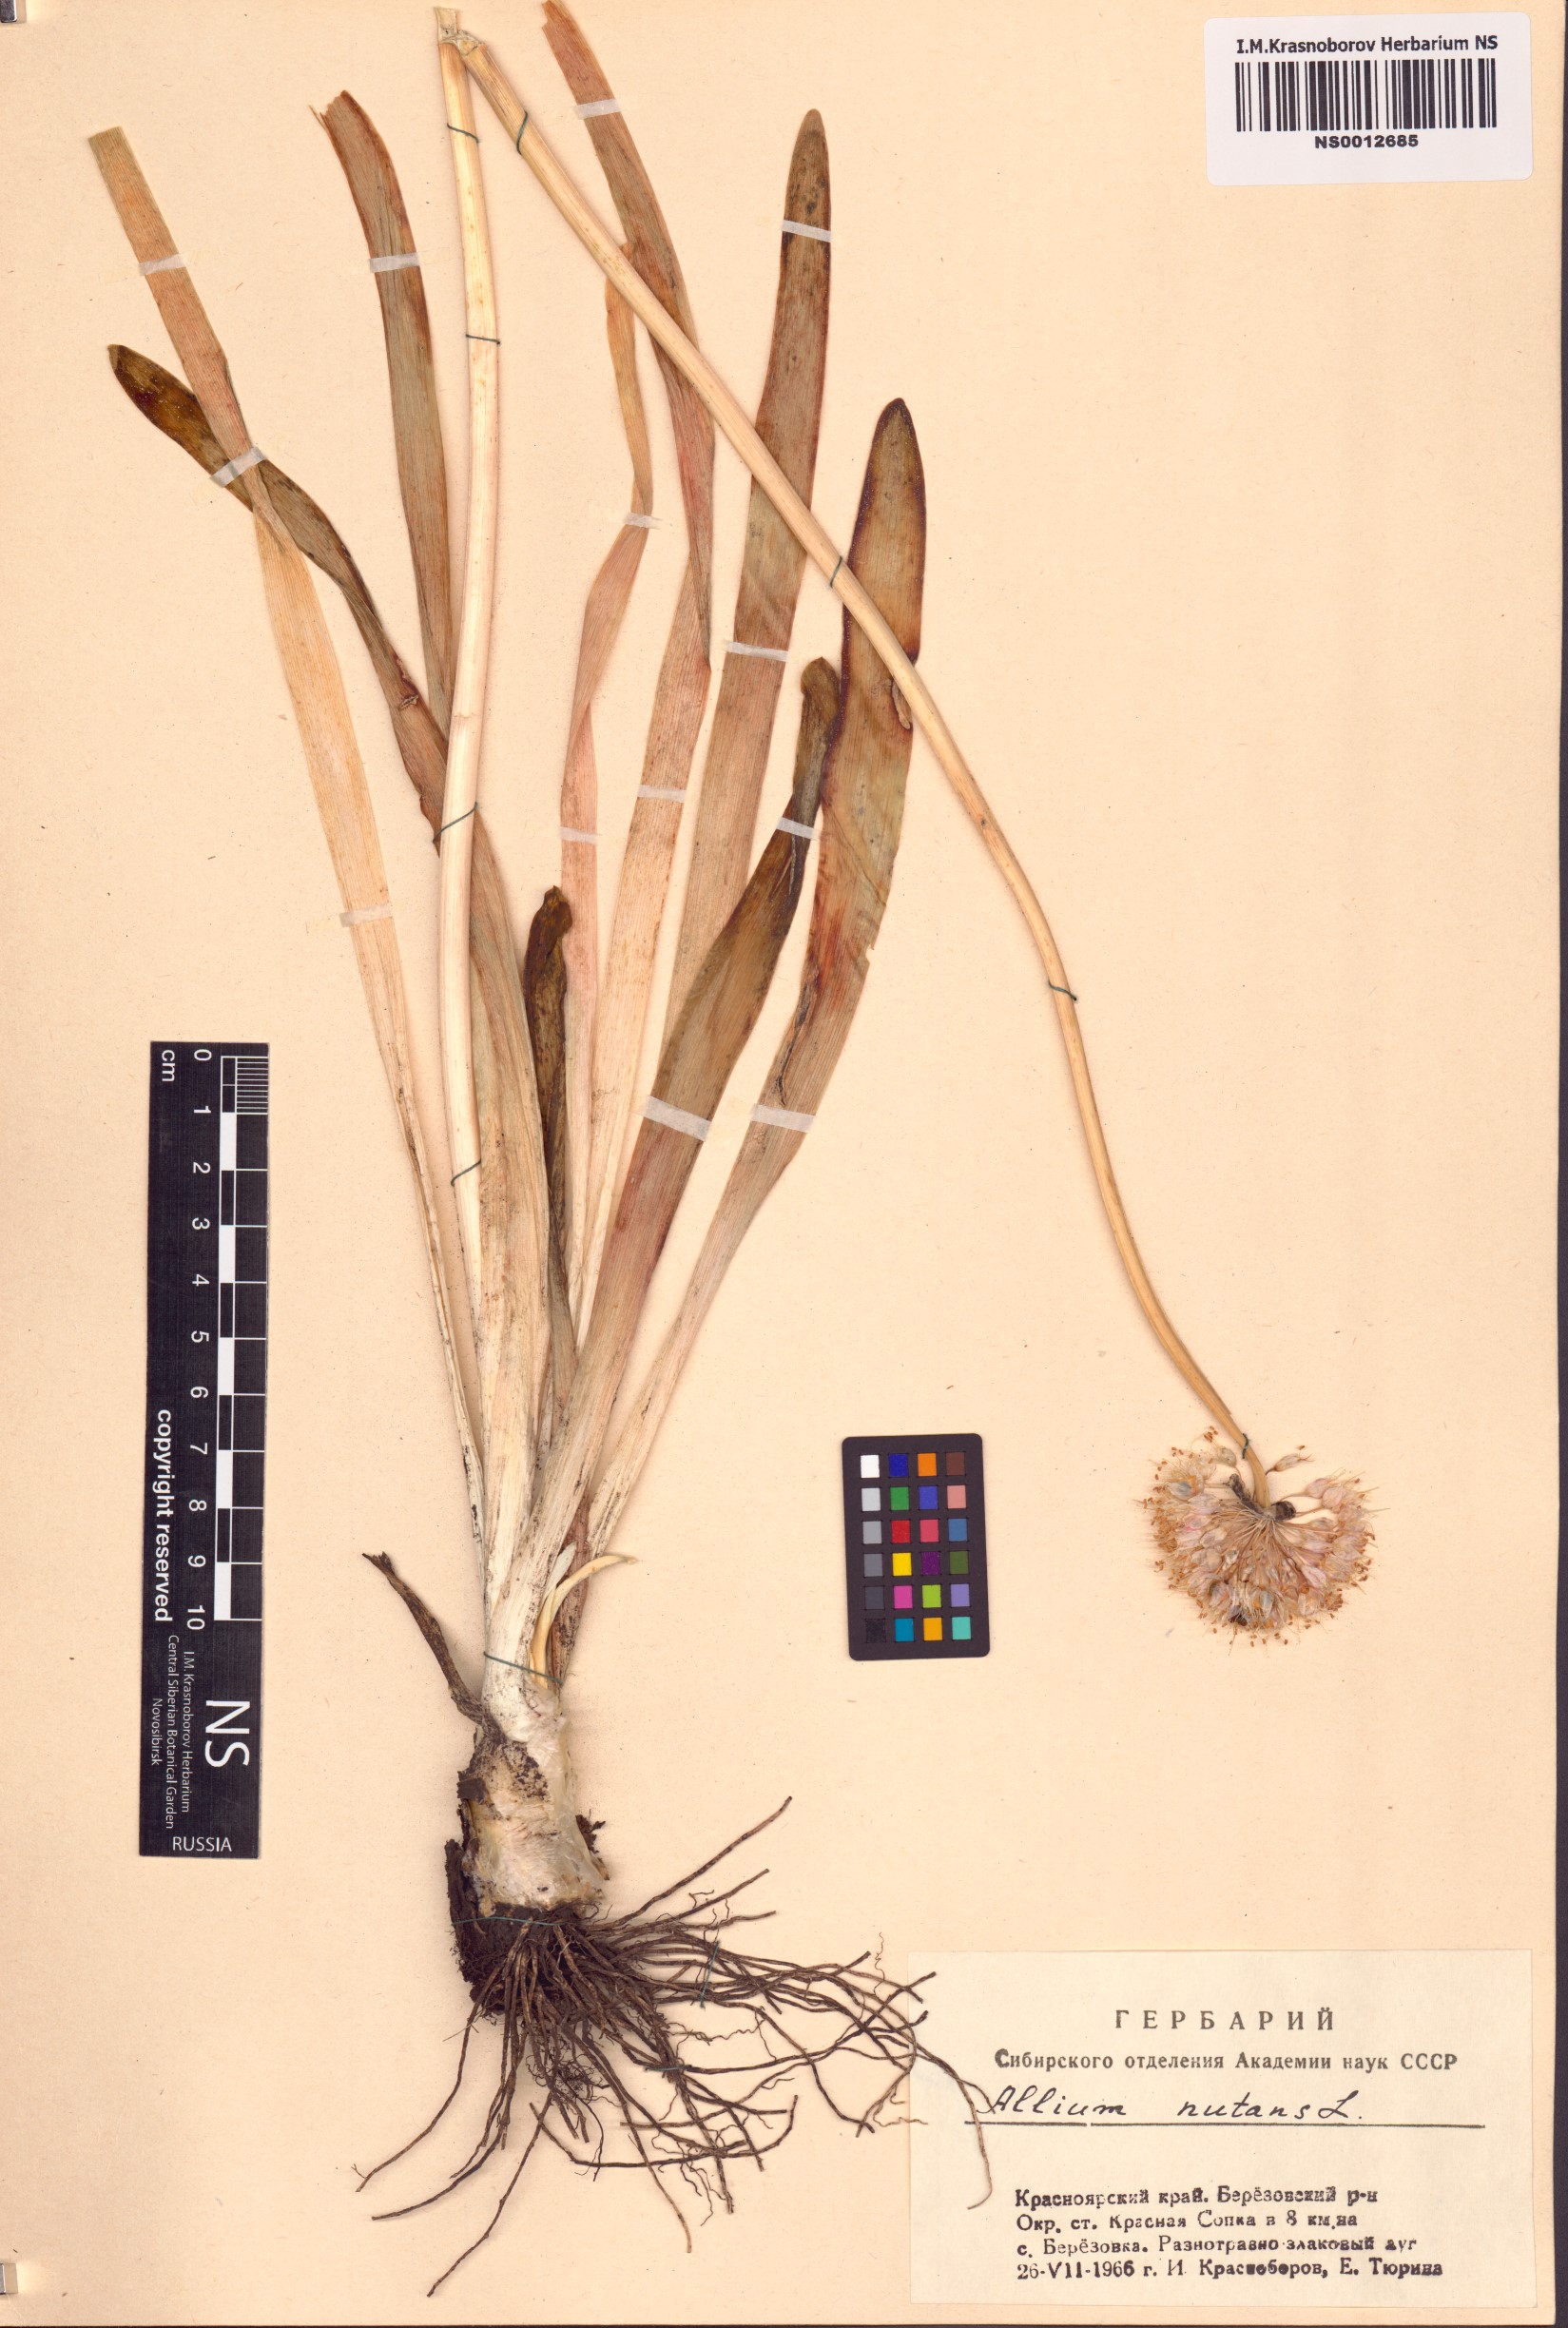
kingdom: Plantae
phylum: Tracheophyta
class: Liliopsida
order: Asparagales
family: Amaryllidaceae
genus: Allium
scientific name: Allium nutans
